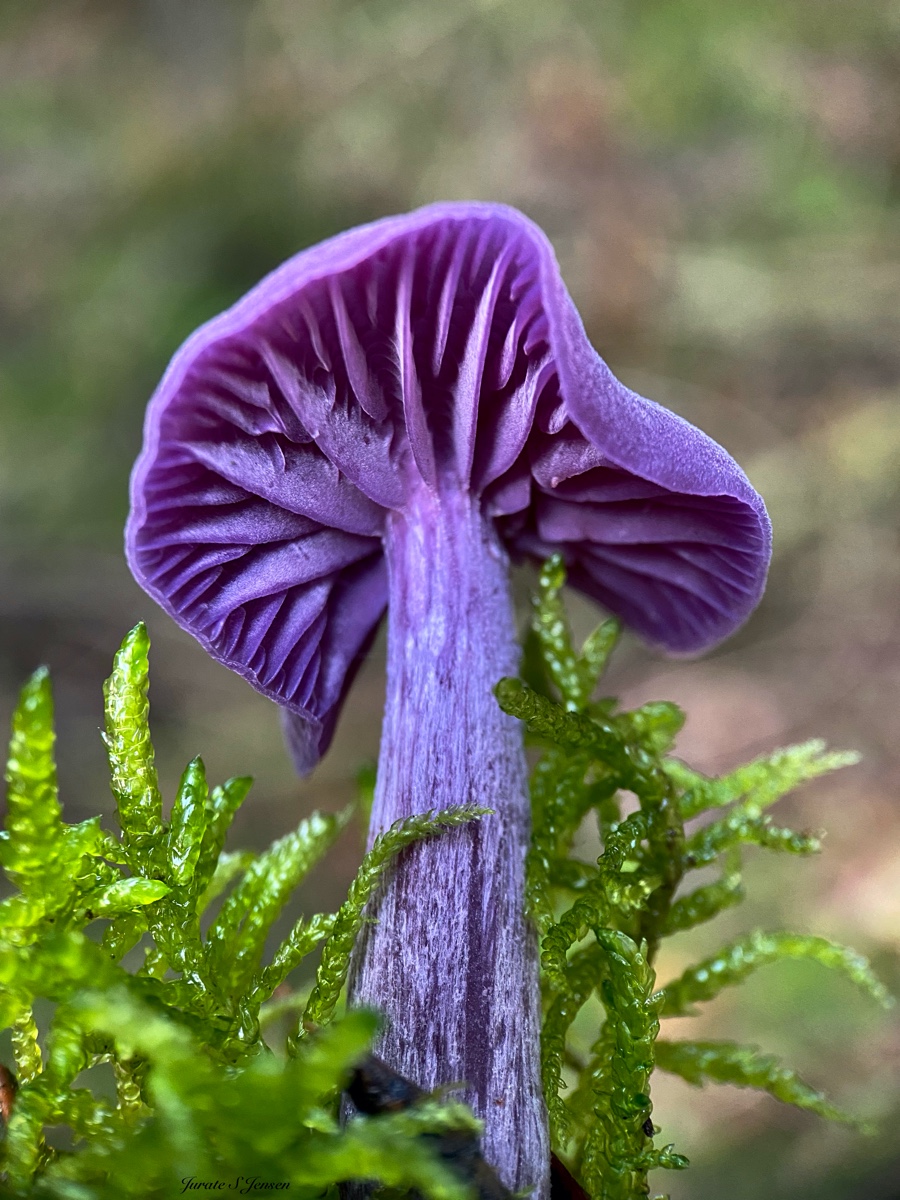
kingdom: Fungi
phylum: Basidiomycota
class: Agaricomycetes
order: Agaricales
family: Hydnangiaceae
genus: Laccaria
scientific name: Laccaria amethystina
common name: violet ametysthat
